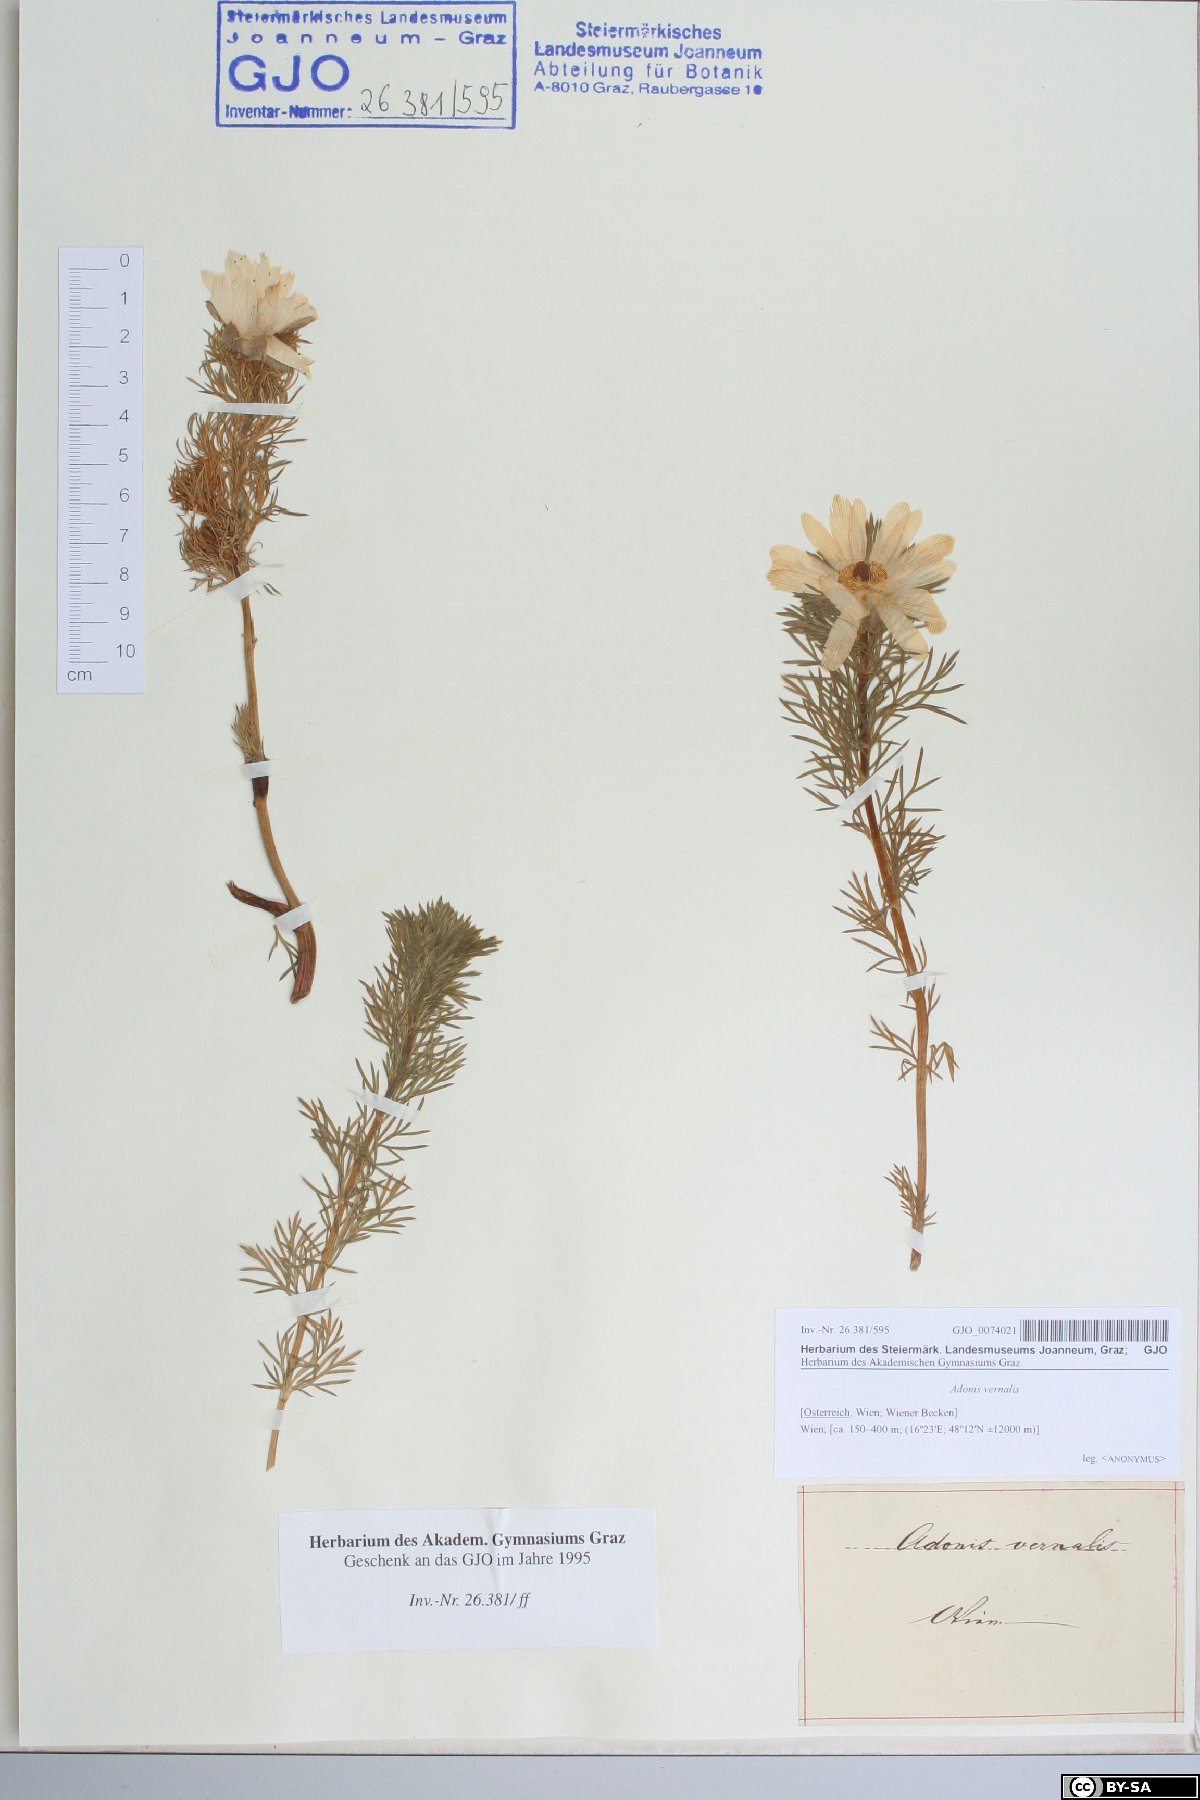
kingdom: Plantae
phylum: Tracheophyta
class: Magnoliopsida
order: Ranunculales
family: Ranunculaceae
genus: Adonis
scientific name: Adonis vernalis
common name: Yellow pheasants-eye
